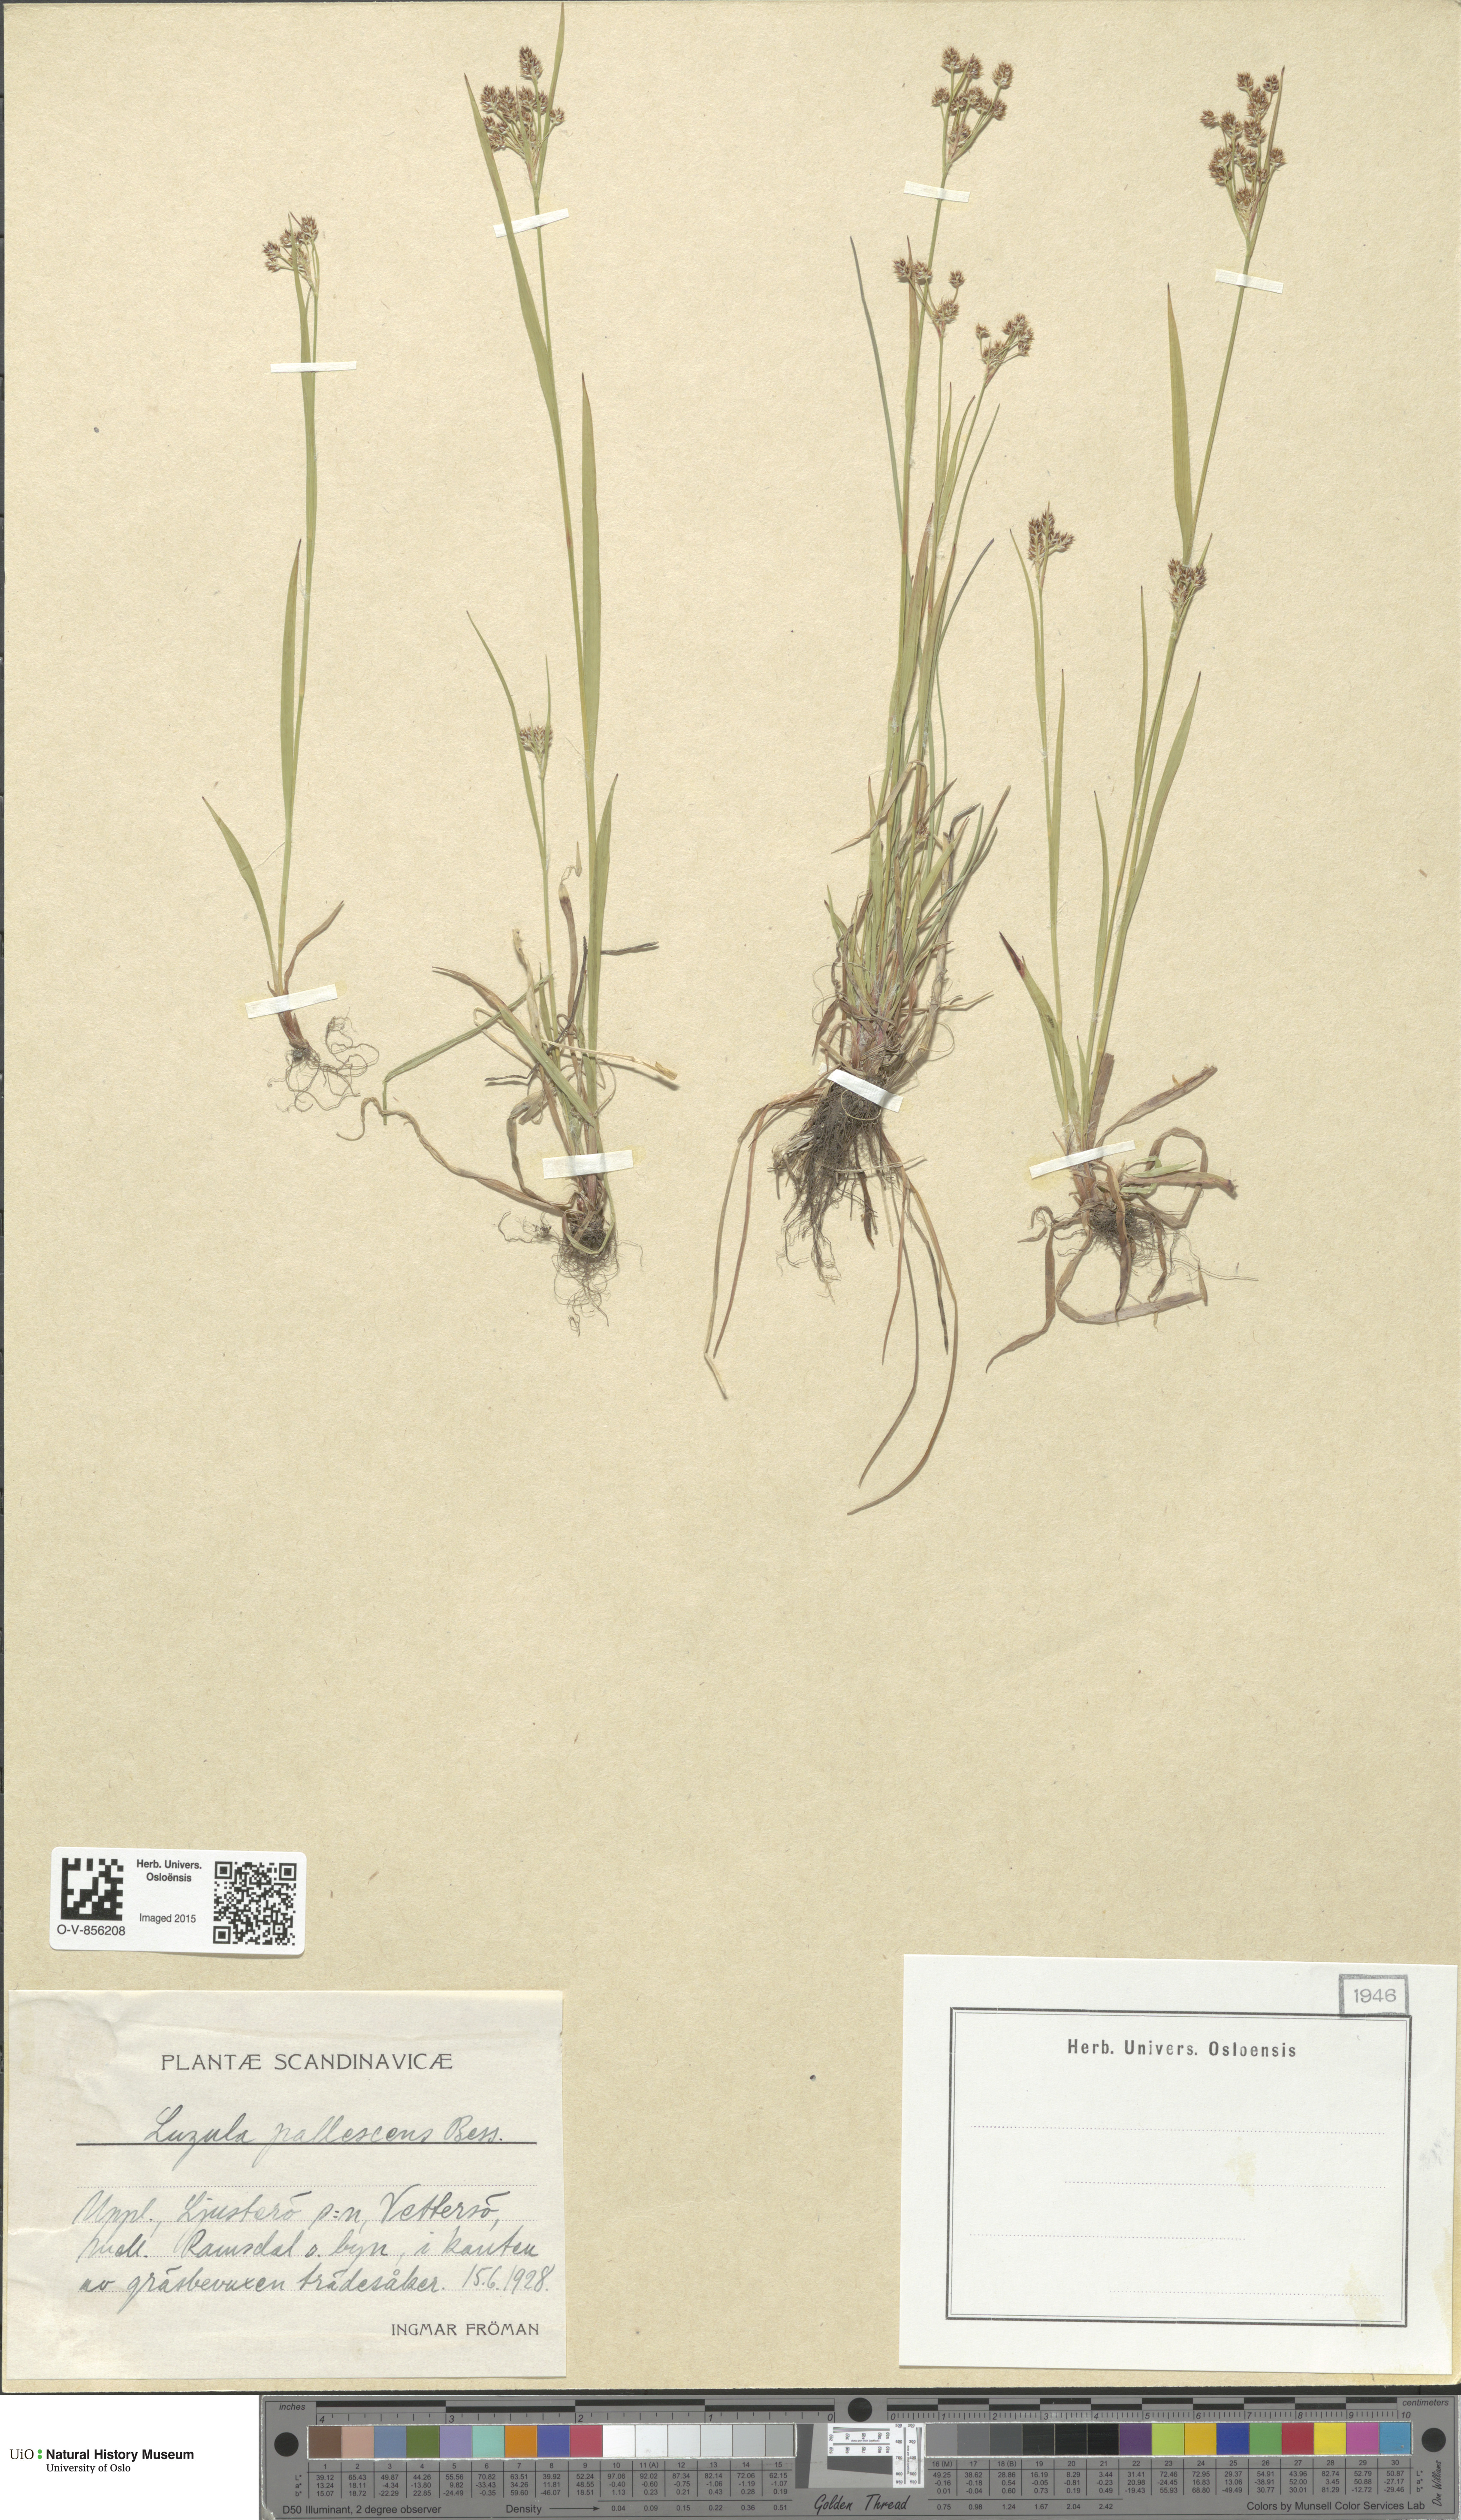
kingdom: Plantae
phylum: Tracheophyta
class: Liliopsida
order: Poales
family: Juncaceae
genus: Luzula
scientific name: Luzula pallescens
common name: Fen wood-rush
